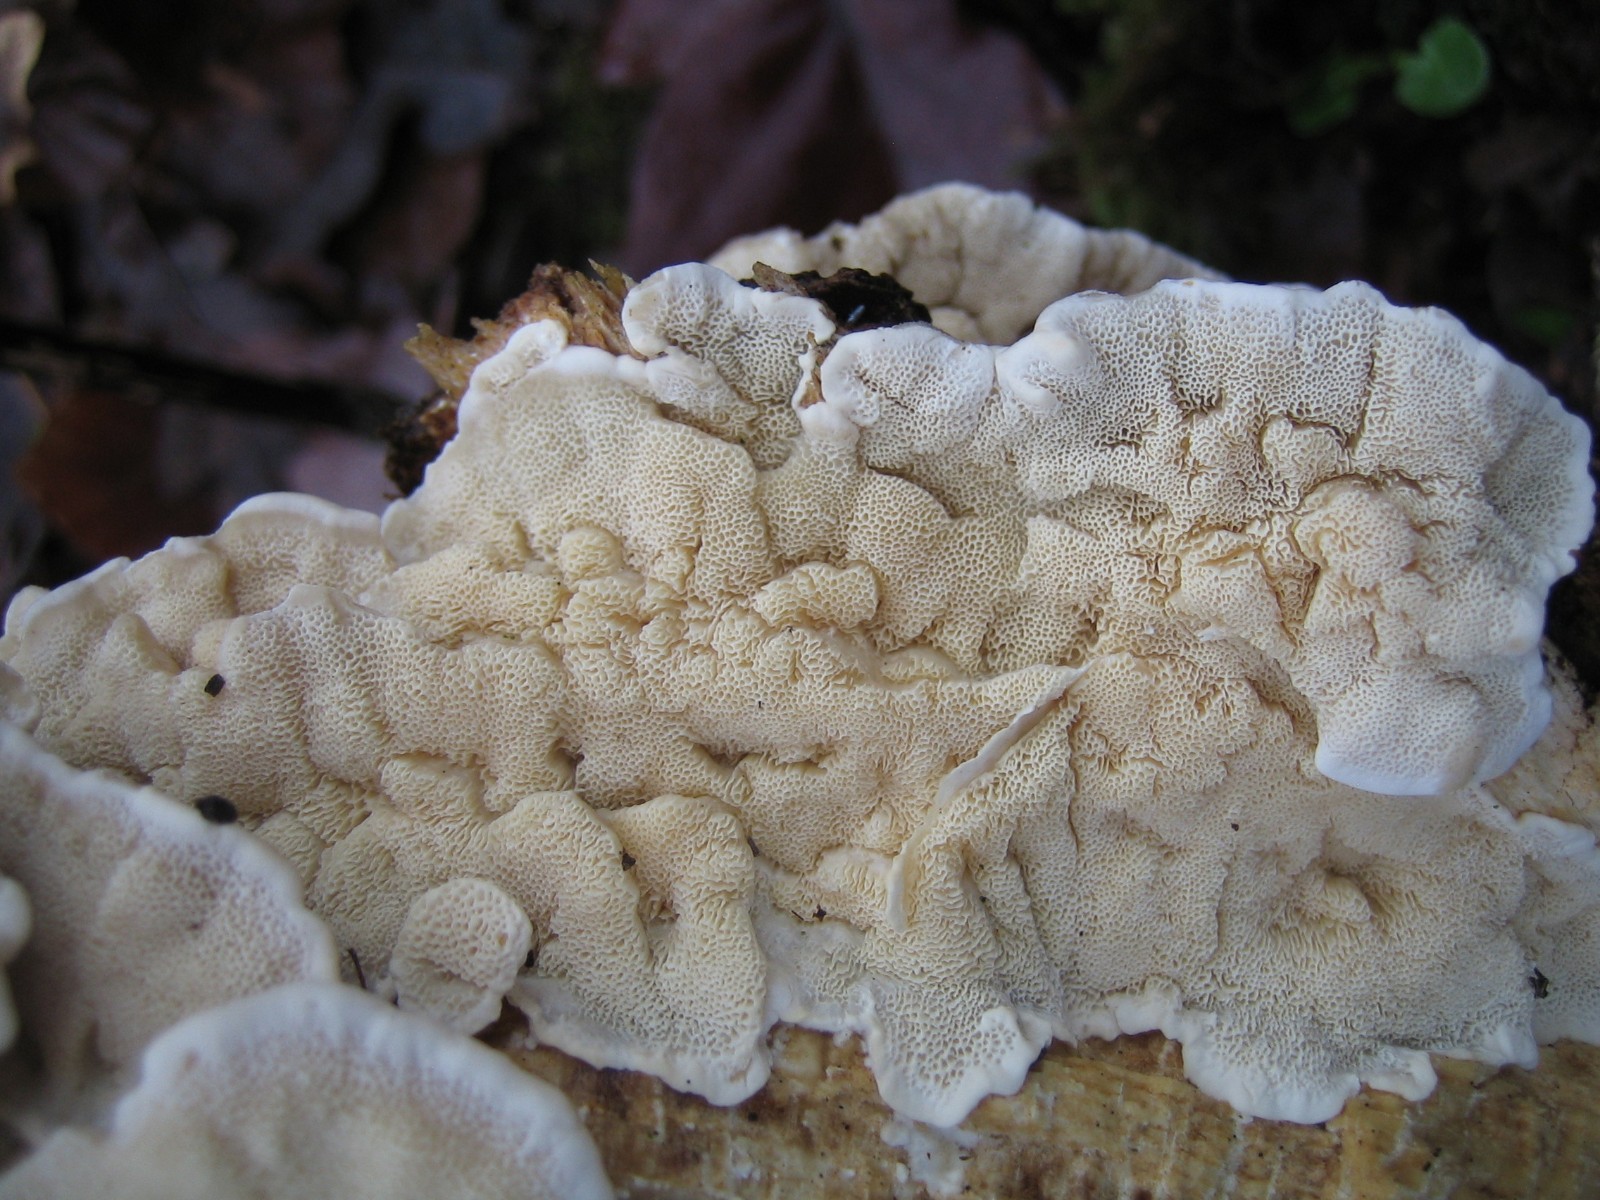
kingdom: Fungi
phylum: Basidiomycota
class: Agaricomycetes
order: Polyporales
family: Polyporaceae
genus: Trametes
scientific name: Trametes versicolor
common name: broget læderporesvamp
